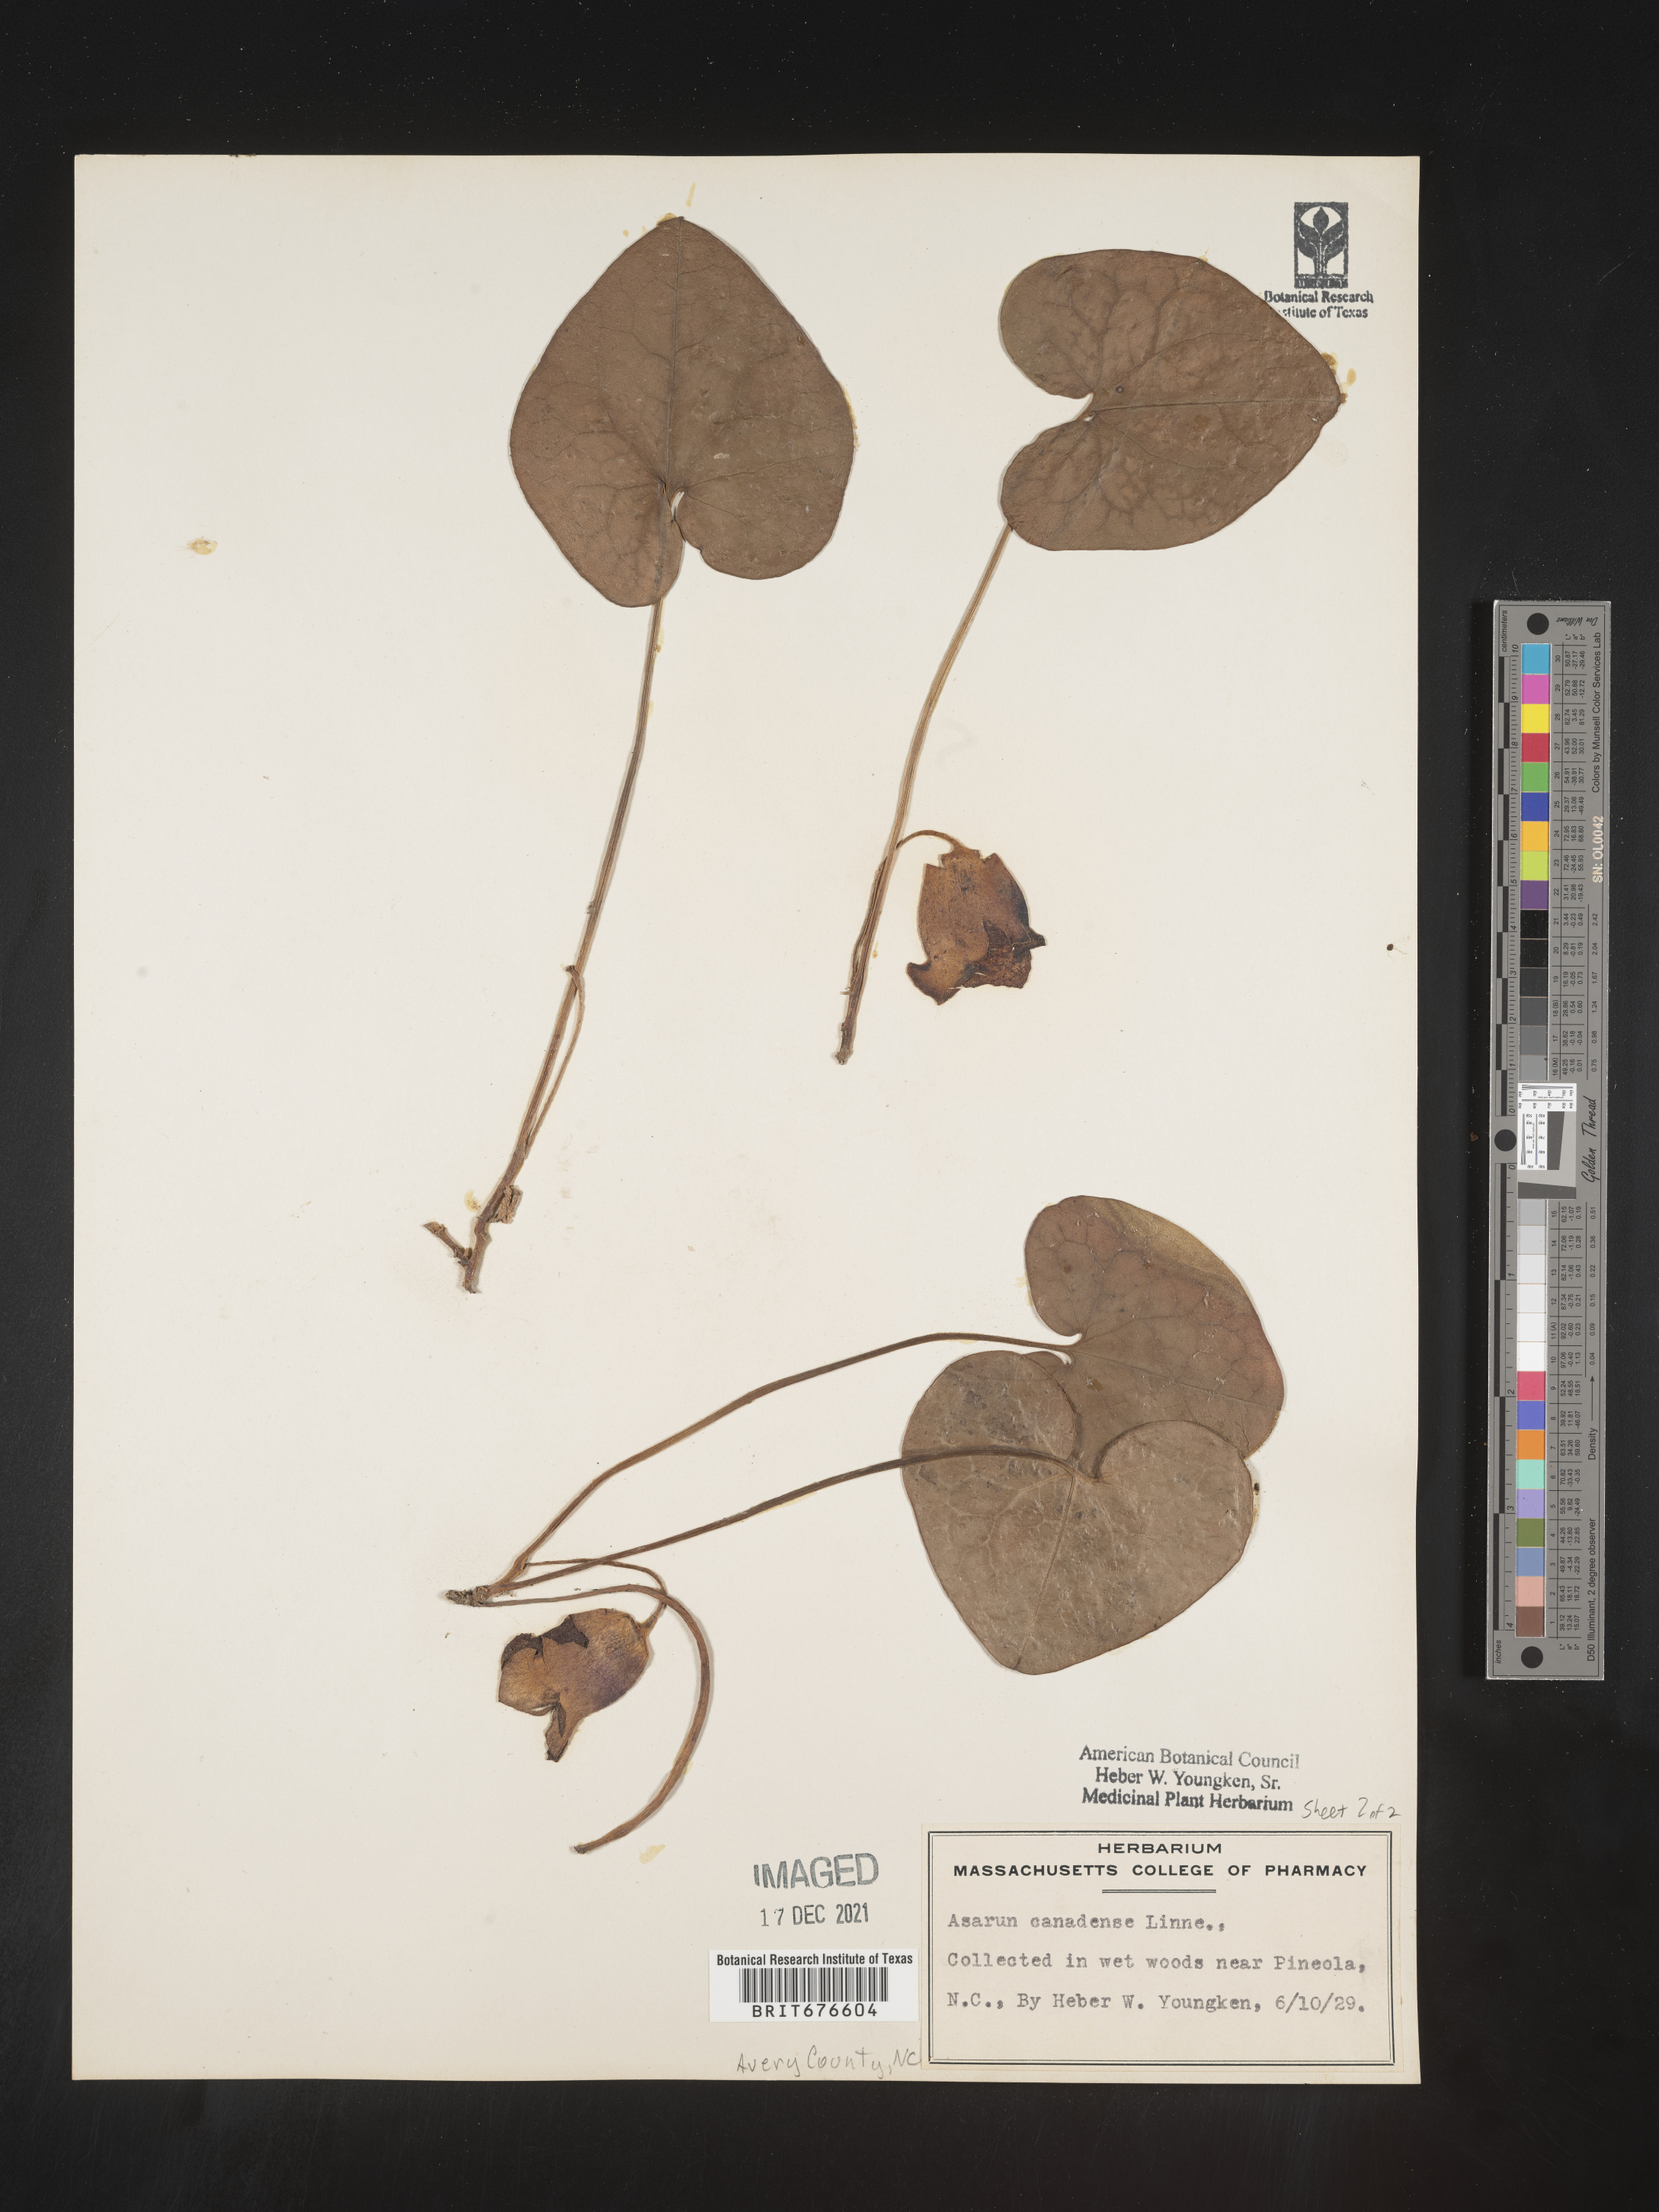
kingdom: Plantae
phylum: Tracheophyta
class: Magnoliopsida
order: Piperales
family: Aristolochiaceae
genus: Asarum
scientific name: Asarum canadense
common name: Wild ginger
